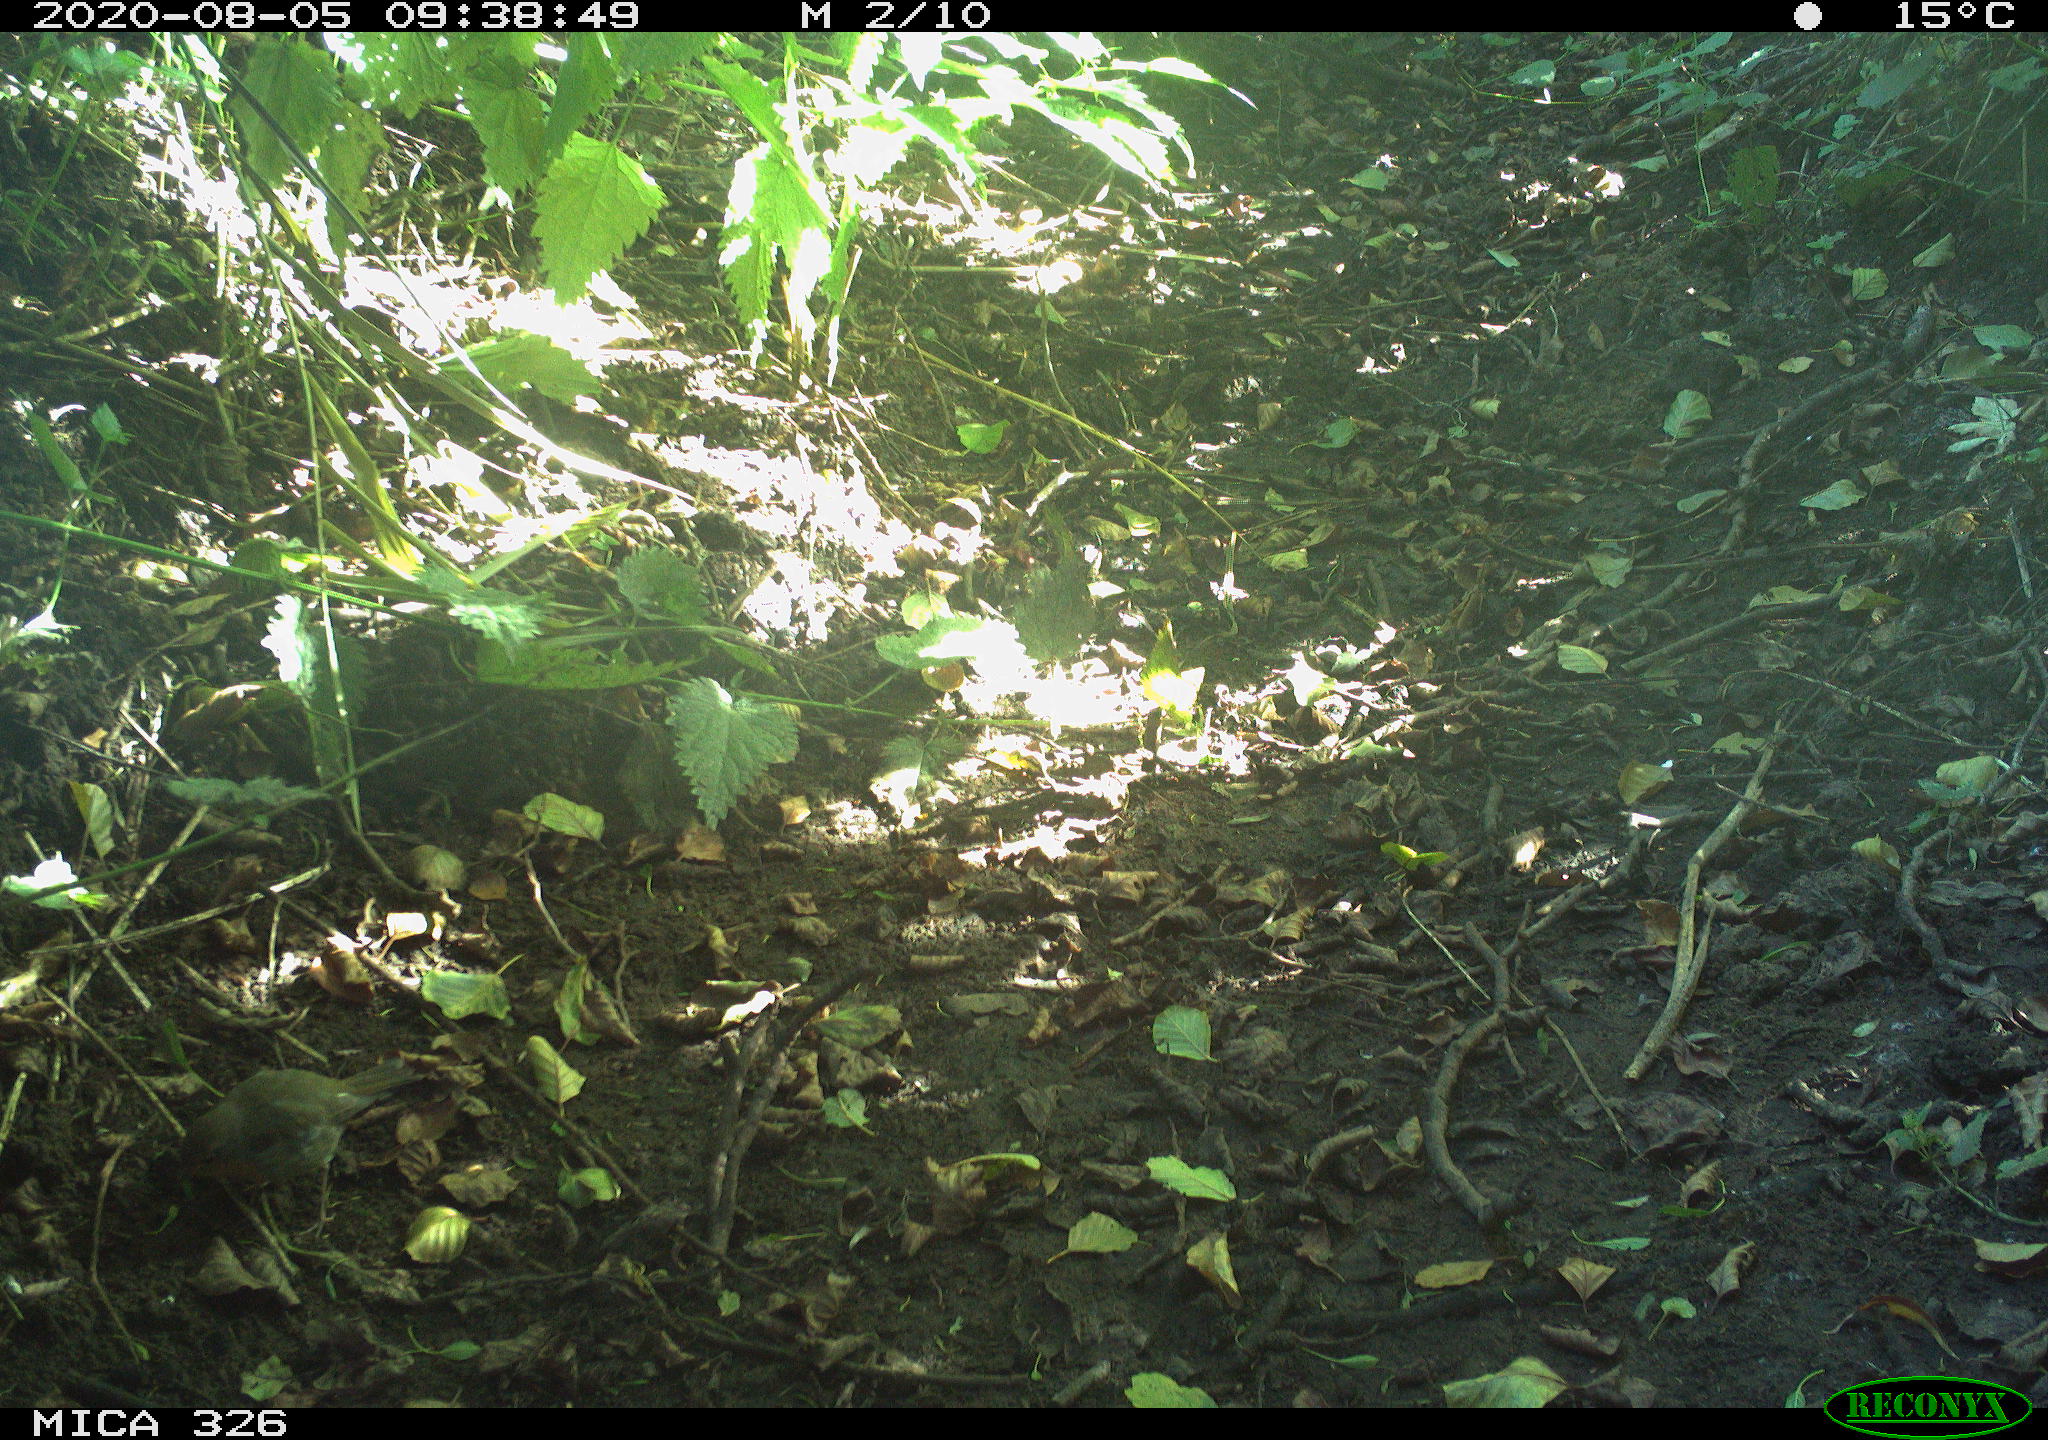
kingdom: Animalia
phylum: Chordata
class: Aves
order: Passeriformes
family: Muscicapidae
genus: Erithacus
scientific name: Erithacus rubecula
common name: European robin
